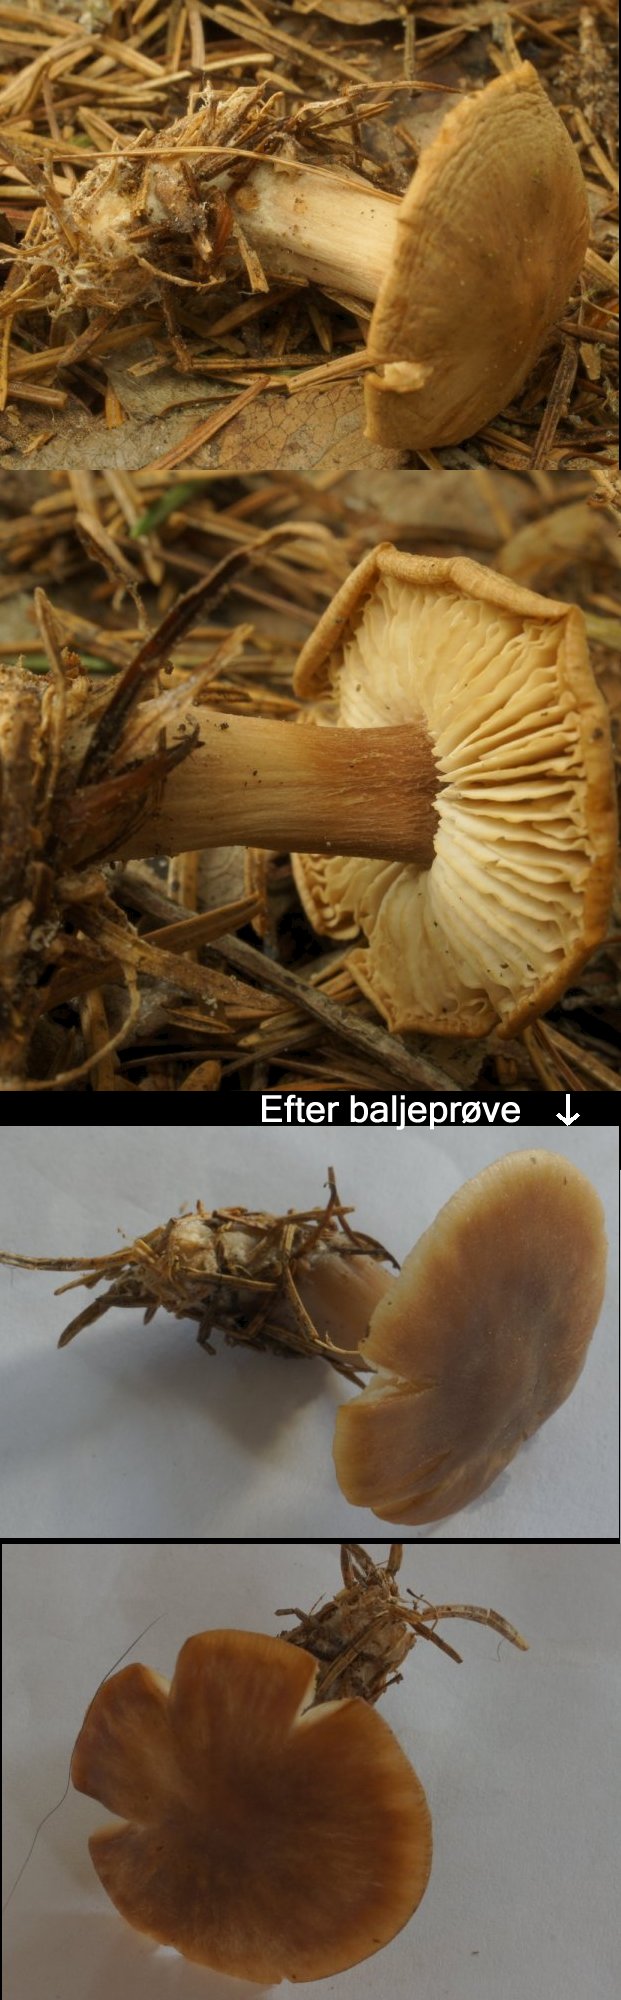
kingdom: Fungi
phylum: Basidiomycota
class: Agaricomycetes
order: Agaricales
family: Omphalotaceae
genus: Rhodocollybia
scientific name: Rhodocollybia asema
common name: horngrå fladhat
